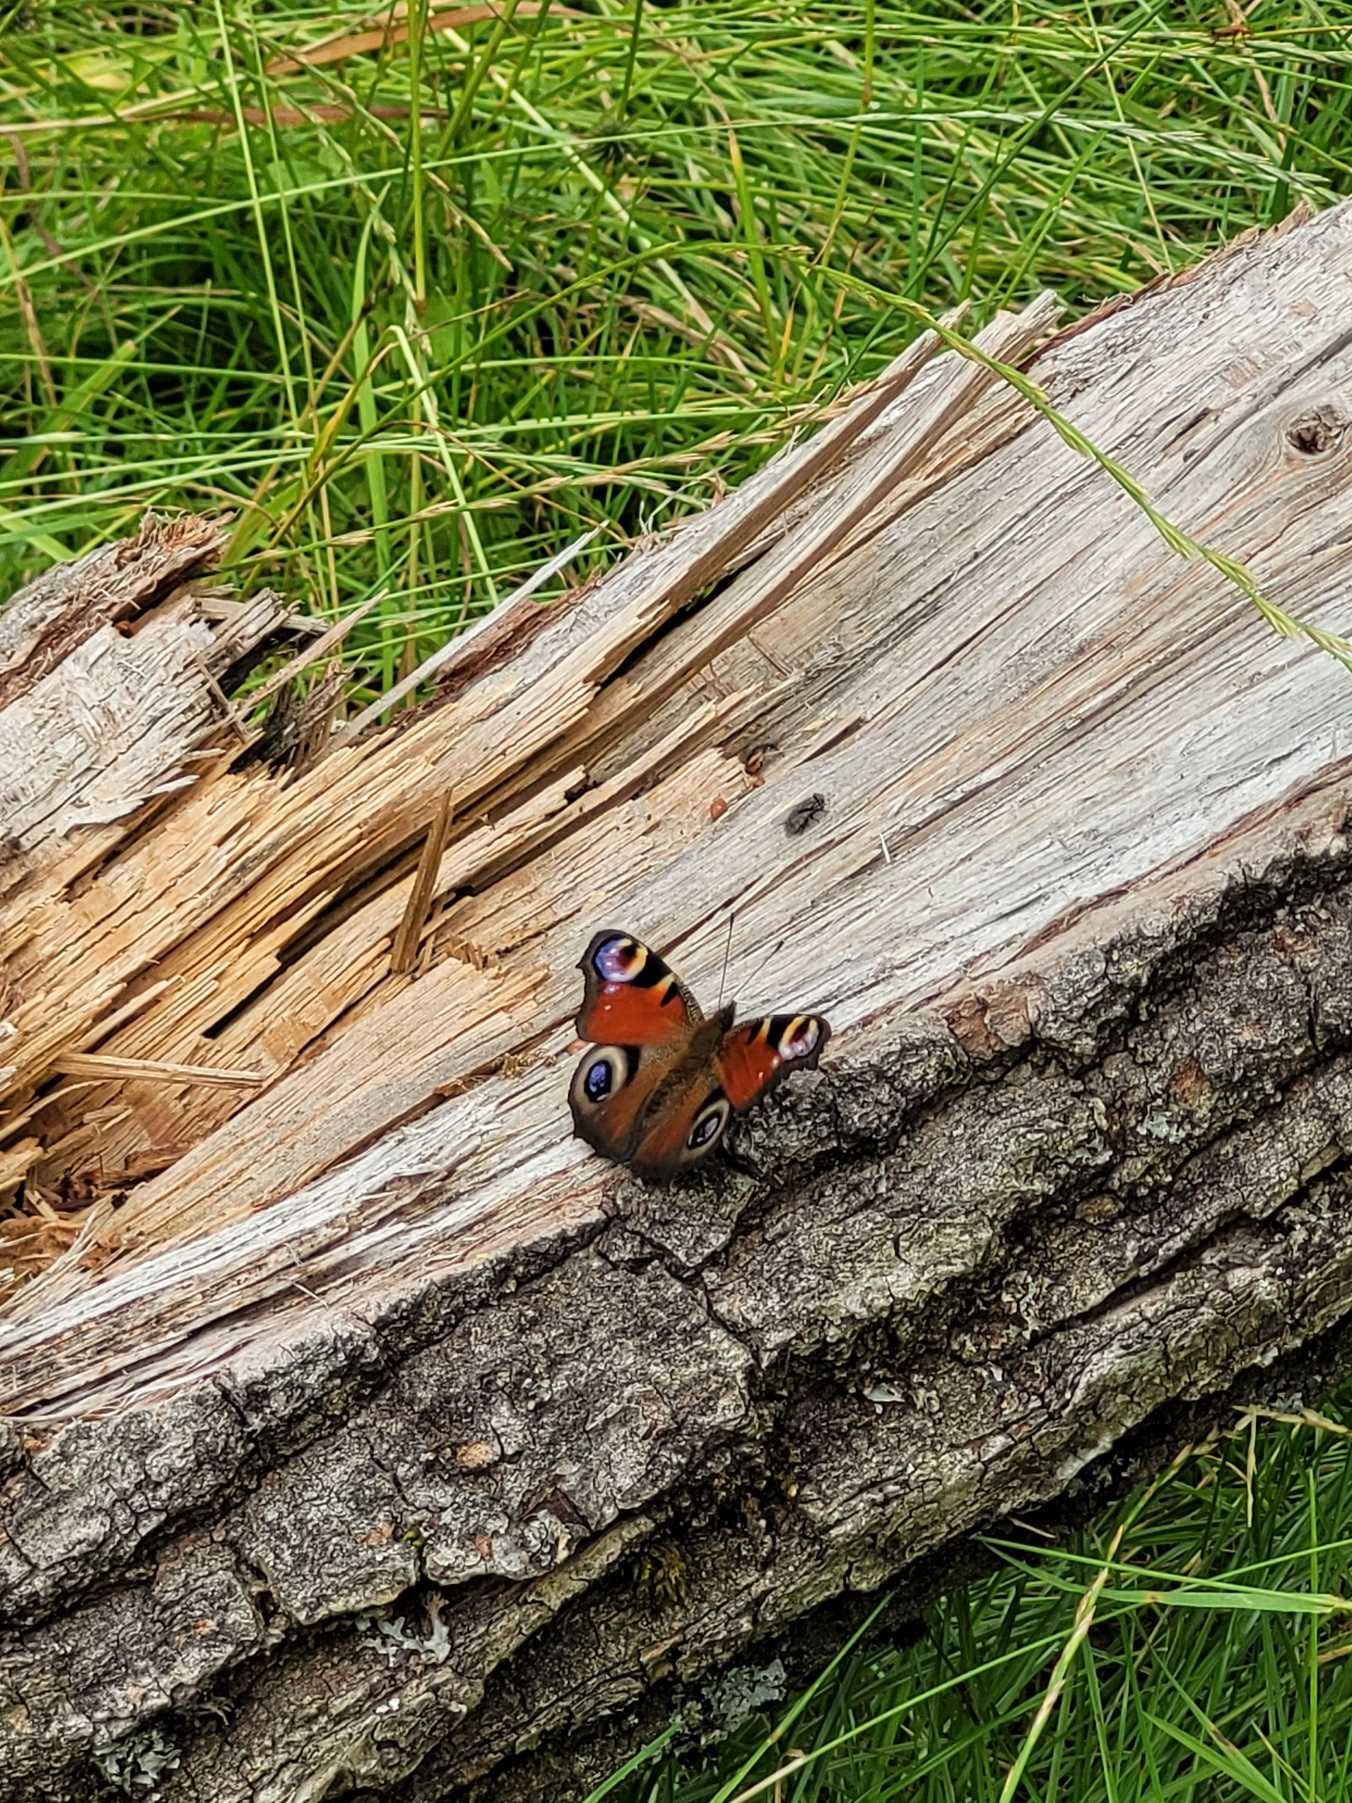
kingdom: Animalia
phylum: Arthropoda
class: Insecta
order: Lepidoptera
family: Nymphalidae
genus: Aglais
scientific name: Aglais io
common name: Dagpåfugleøje
